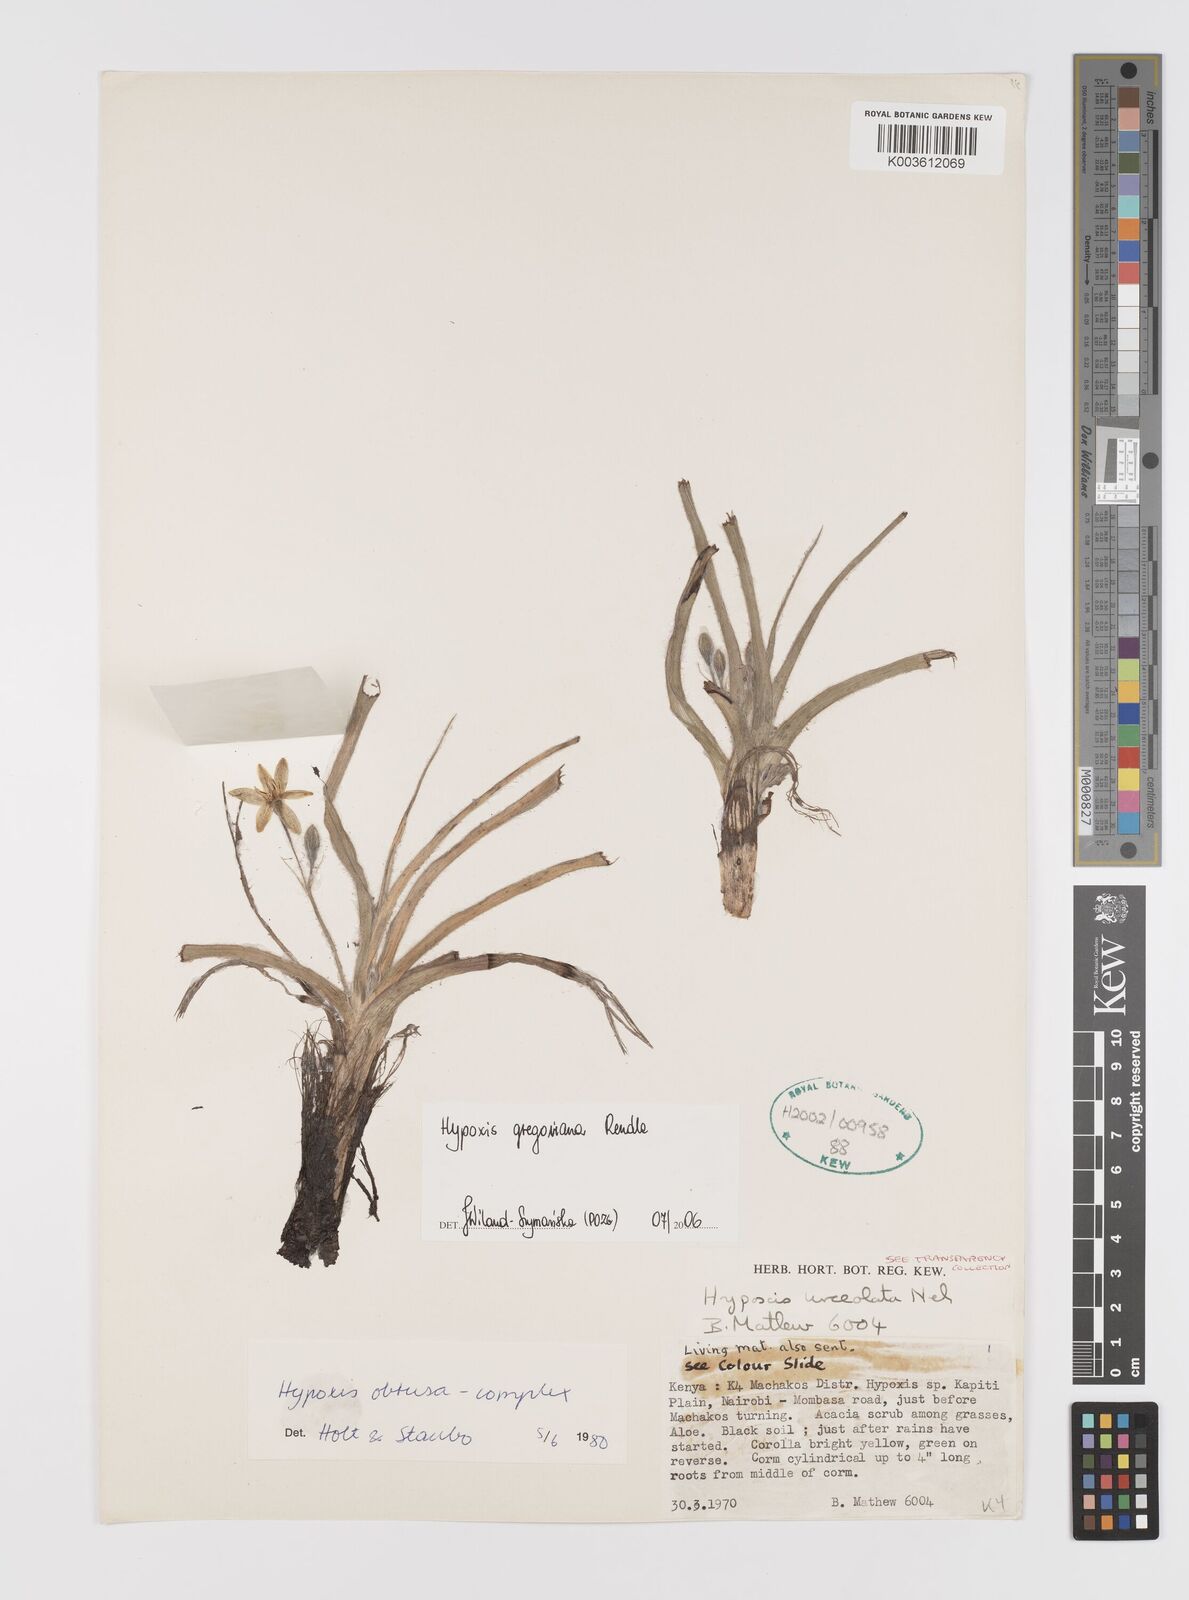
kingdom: Plantae
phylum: Tracheophyta
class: Liliopsida
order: Asparagales
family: Hypoxidaceae
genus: Hypoxis
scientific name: Hypoxis gregoriana
